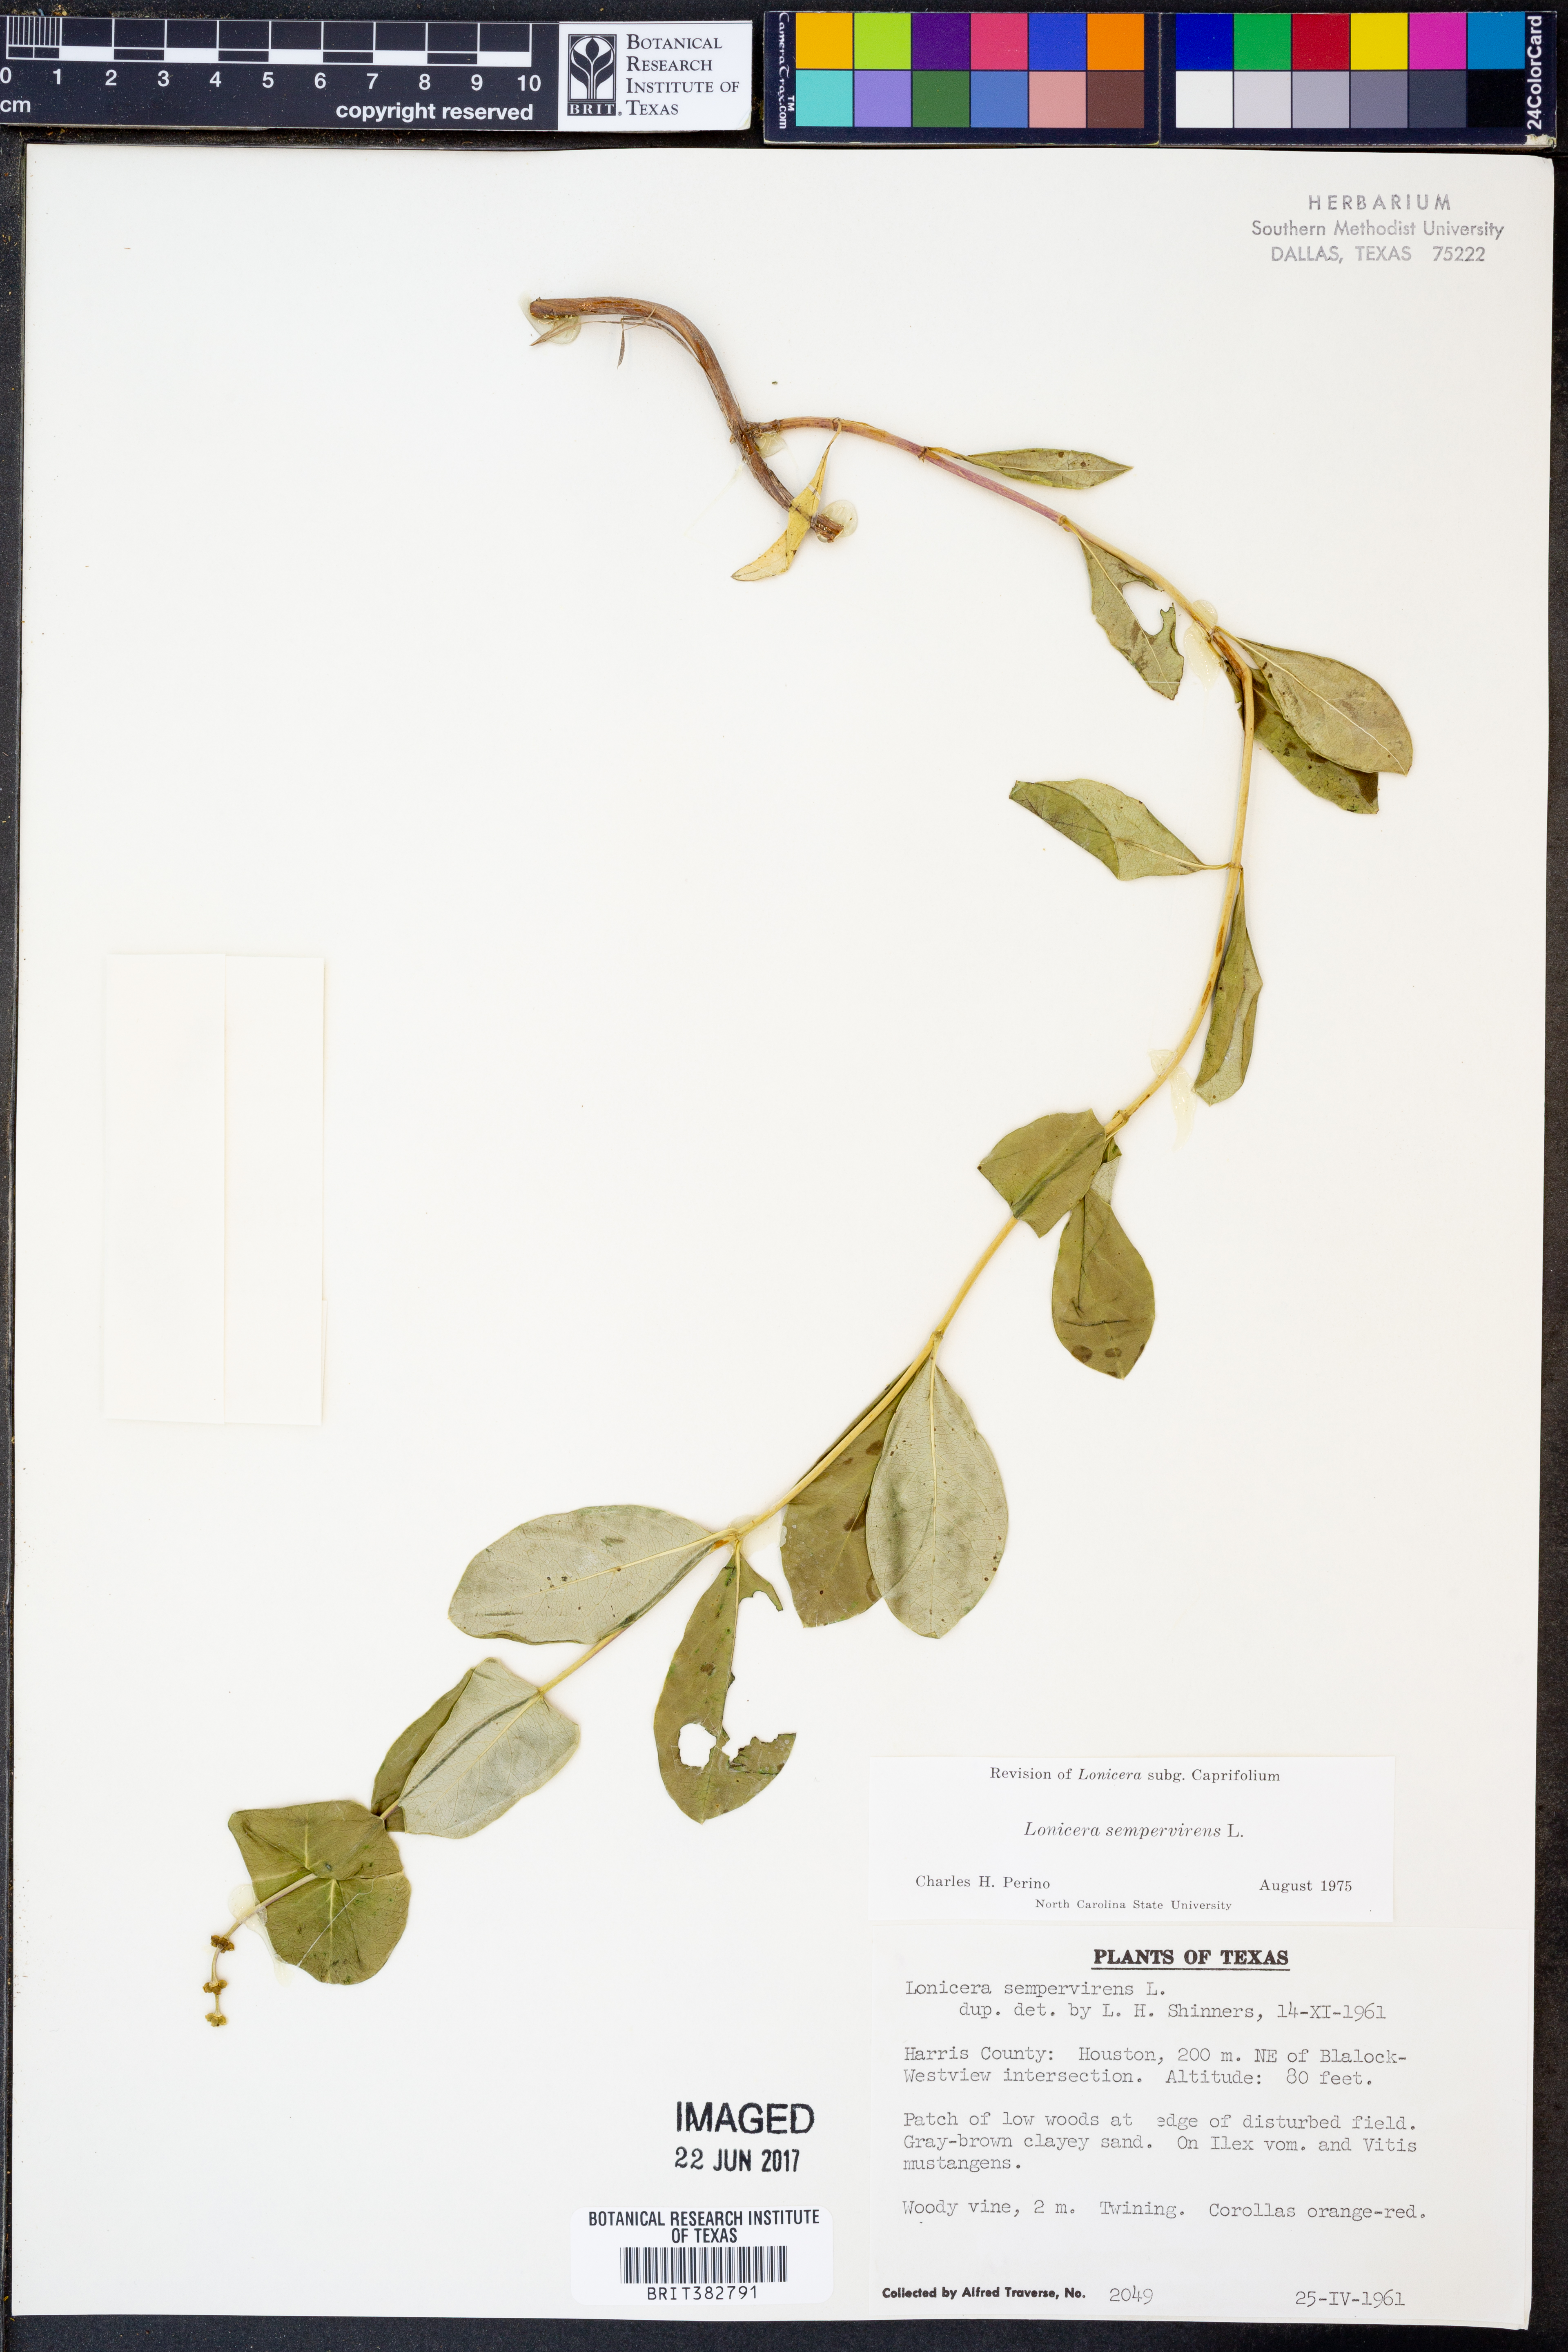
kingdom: Plantae
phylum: Tracheophyta
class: Magnoliopsida
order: Dipsacales
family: Caprifoliaceae
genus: Lonicera
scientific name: Lonicera sempervirens
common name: Coral honeysuckle
